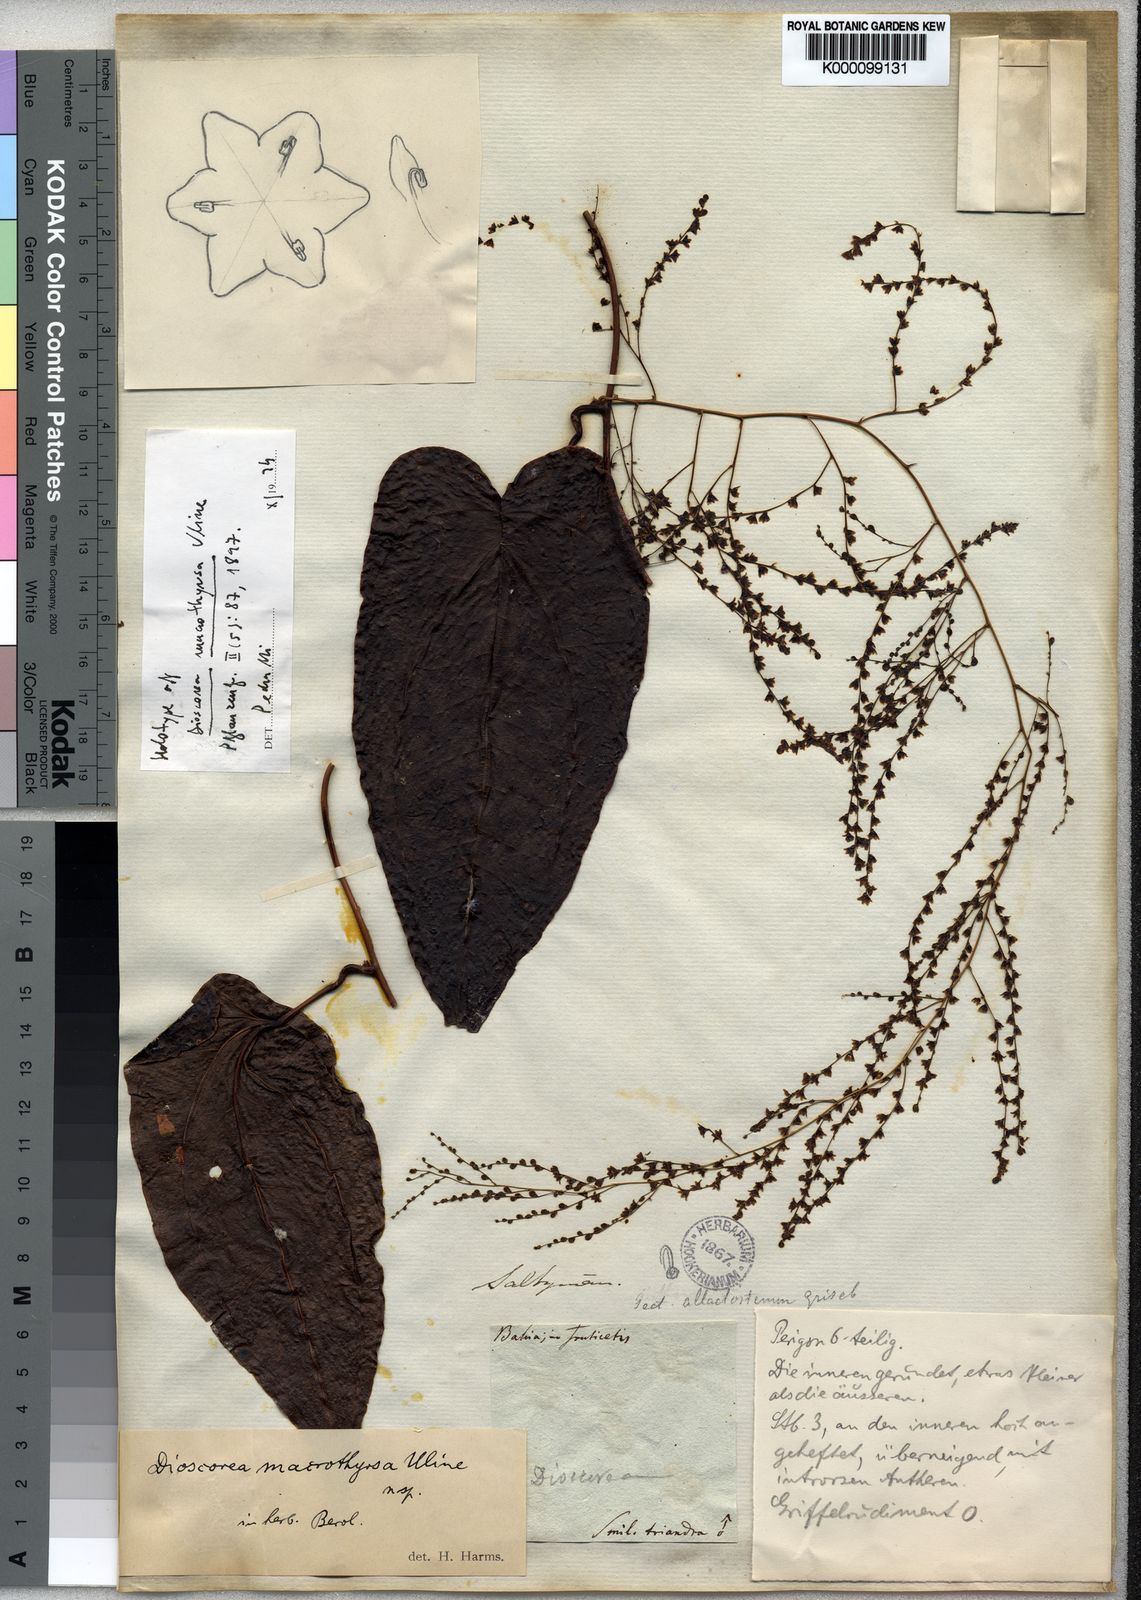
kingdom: Plantae
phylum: Tracheophyta
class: Liliopsida
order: Dioscoreales
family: Dioscoreaceae
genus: Dioscorea
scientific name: Dioscorea macrothyrsa
